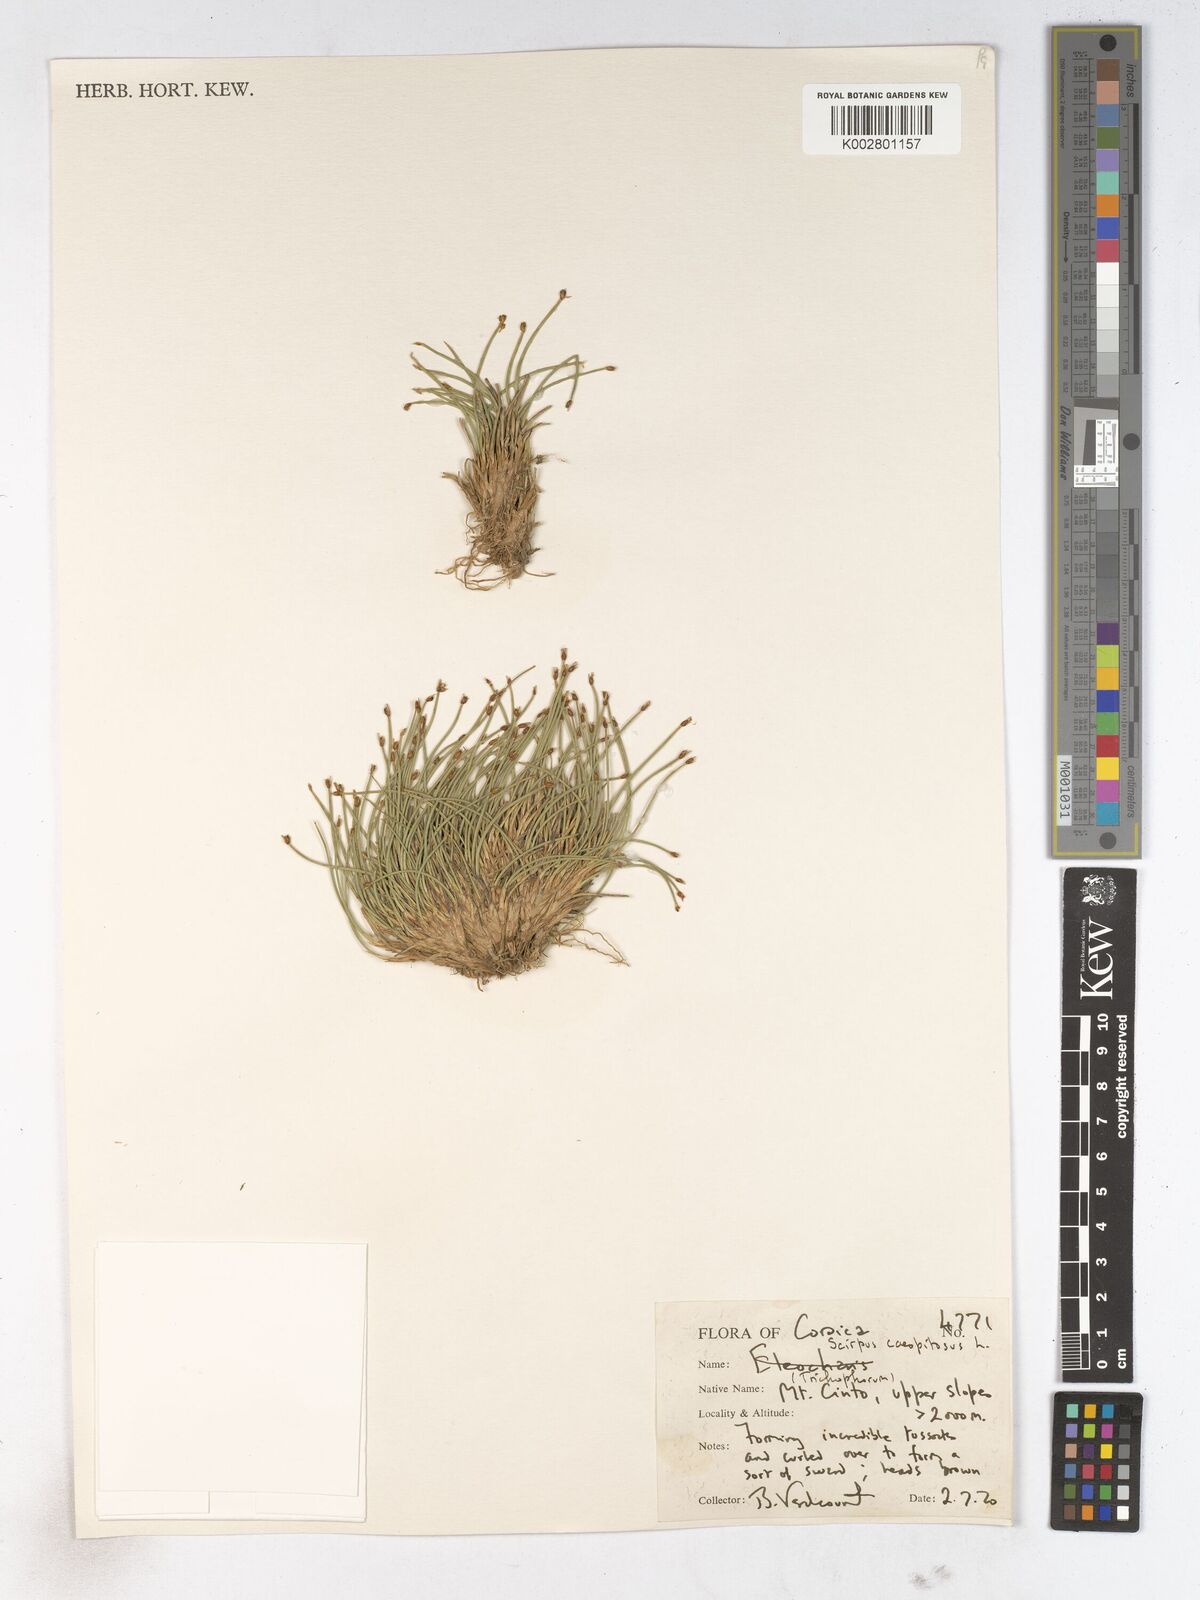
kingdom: Plantae
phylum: Tracheophyta
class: Liliopsida
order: Poales
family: Cyperaceae
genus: Trichophorum
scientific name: Trichophorum cespitosum
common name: Cespitose bulrush
